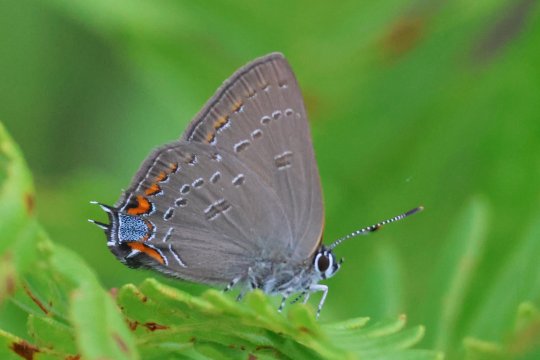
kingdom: Animalia
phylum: Arthropoda
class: Insecta
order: Lepidoptera
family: Lycaenidae
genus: Satyrium
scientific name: Satyrium edwardsii
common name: Edwards' Hairstreak
